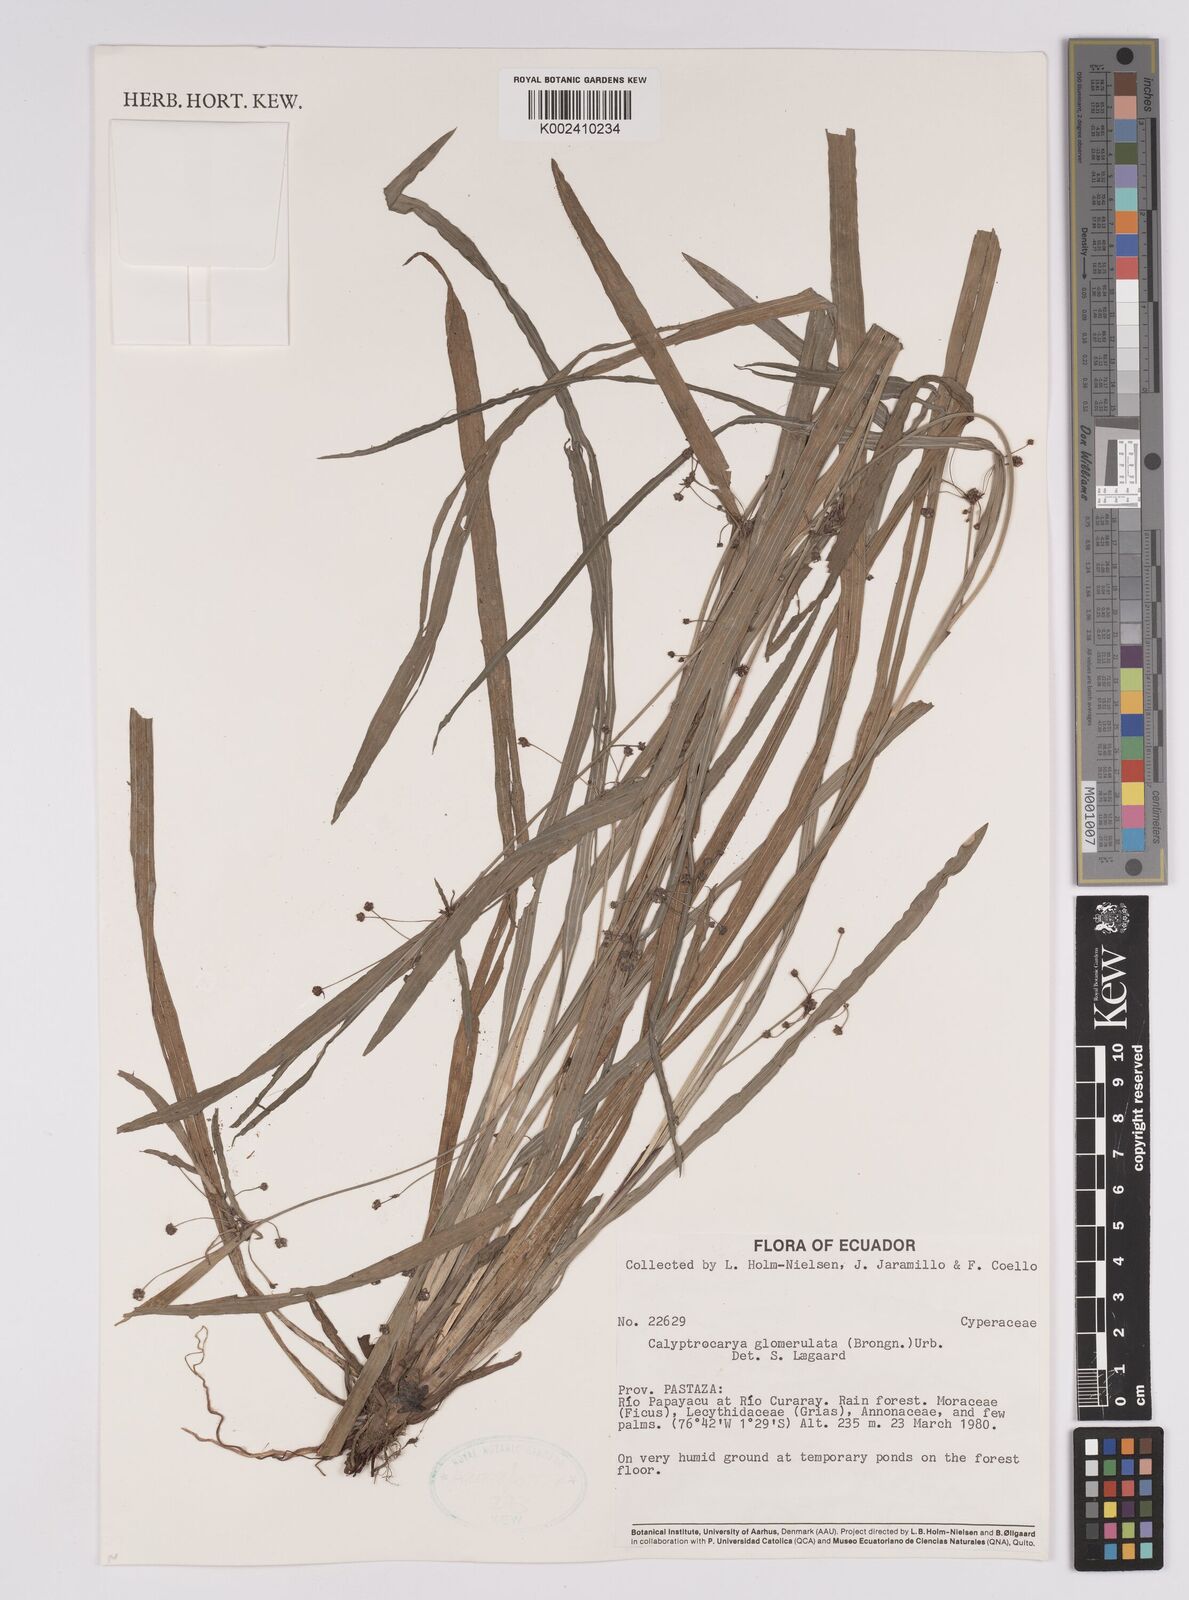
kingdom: Plantae
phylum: Tracheophyta
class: Liliopsida
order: Poales
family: Cyperaceae
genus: Calyptrocarya
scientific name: Calyptrocarya glomerulata
